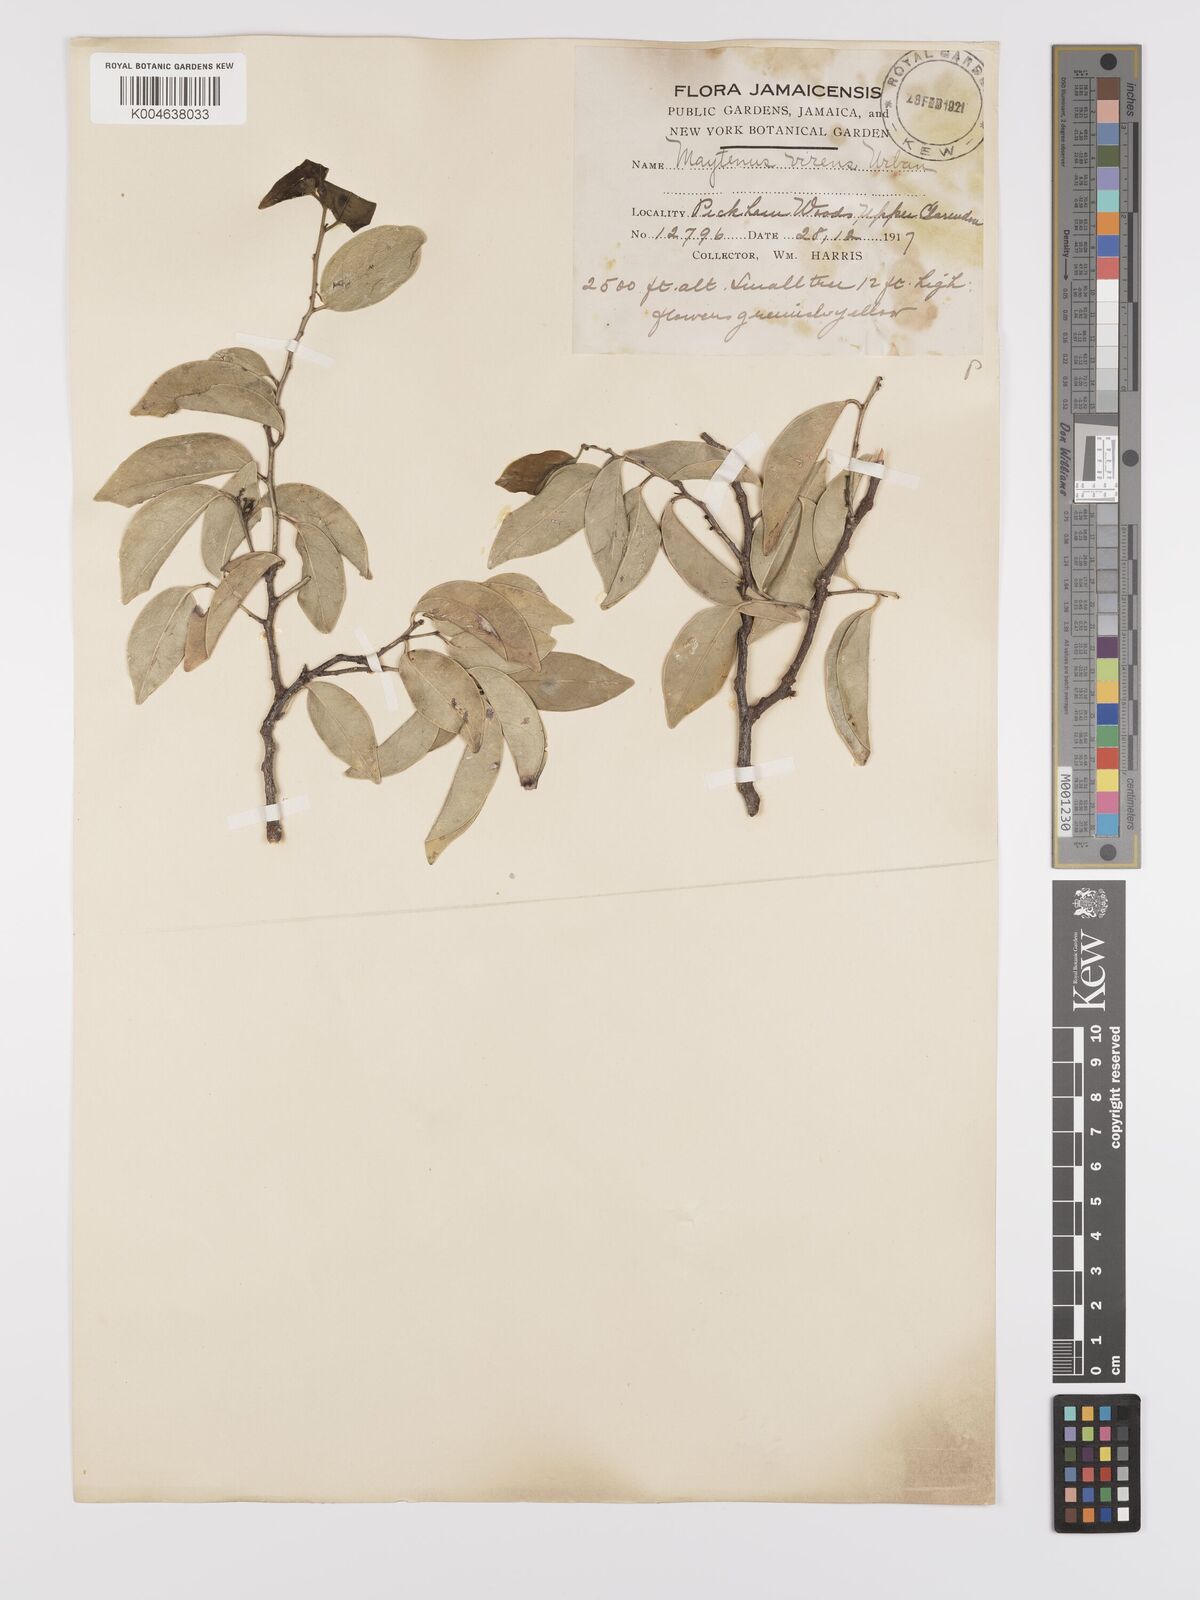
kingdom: Plantae
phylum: Tracheophyta
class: Magnoliopsida
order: Celastrales
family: Celastraceae
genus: Monteverdia
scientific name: Monteverdia virens
